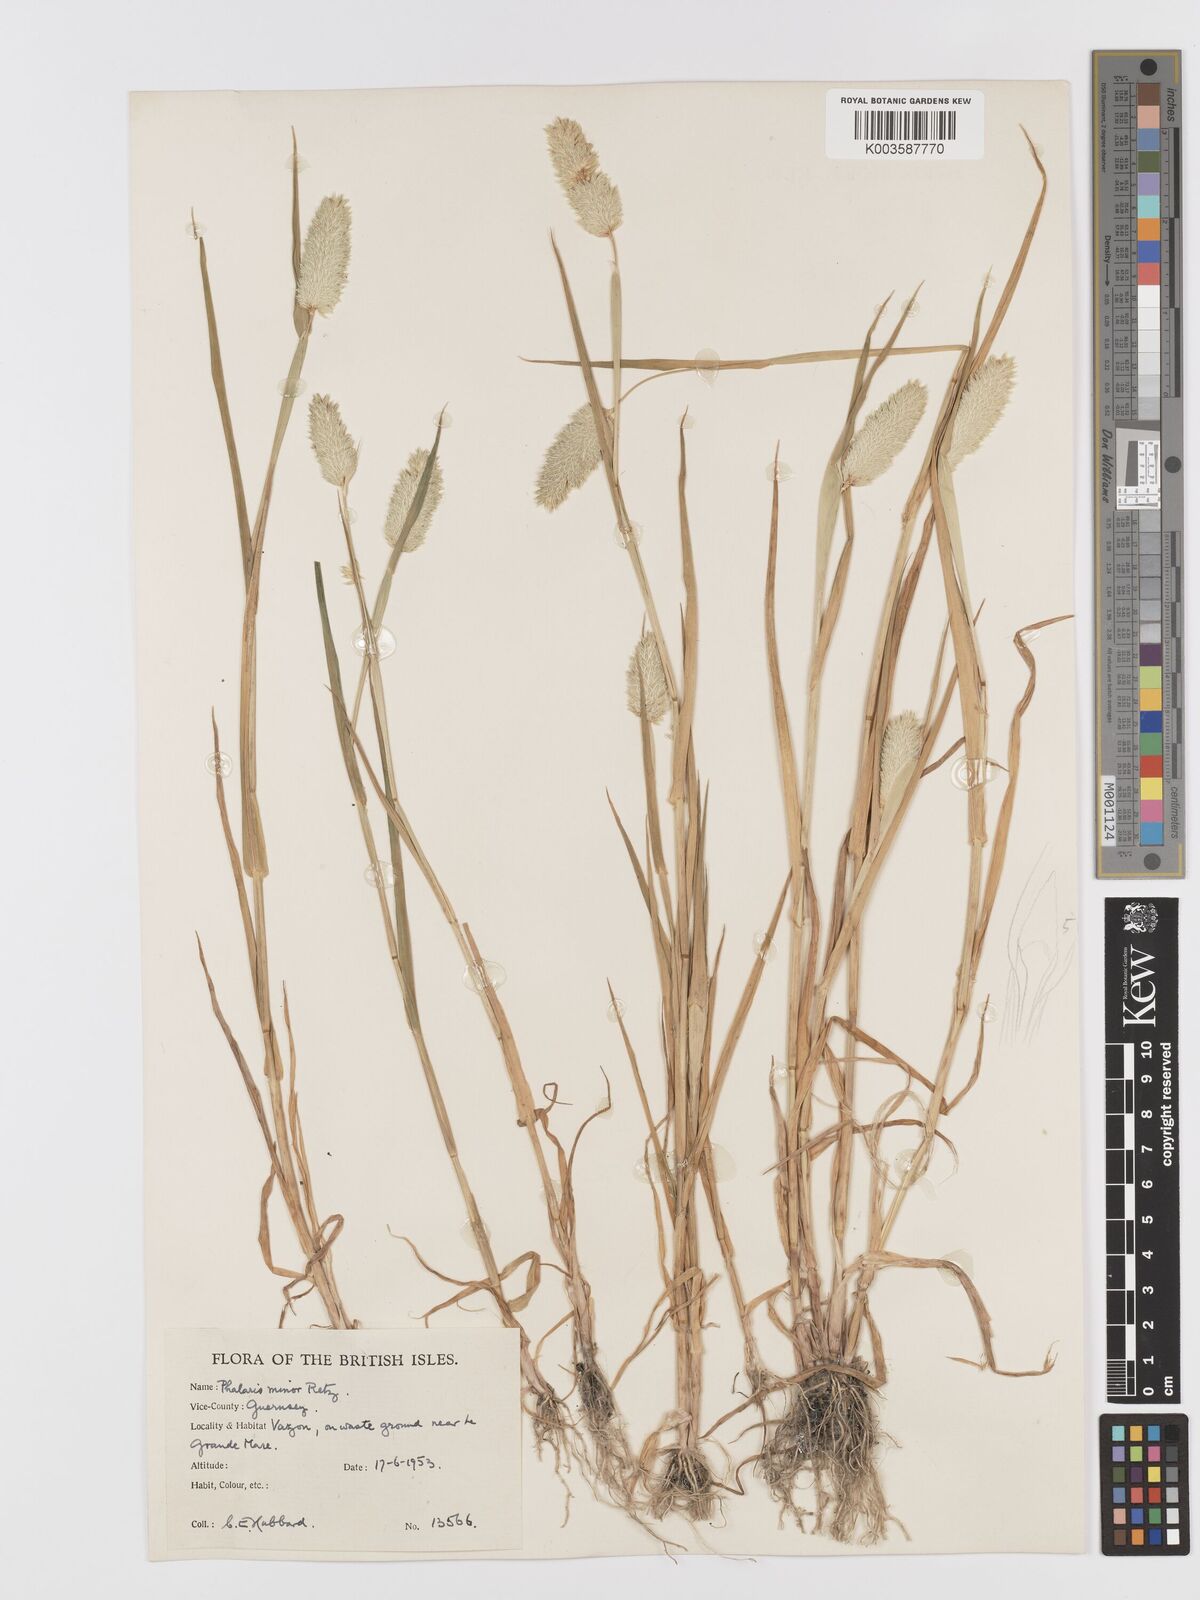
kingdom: Plantae
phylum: Tracheophyta
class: Liliopsida
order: Poales
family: Poaceae
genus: Phalaris
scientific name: Phalaris minor
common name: Littleseed canarygrass
